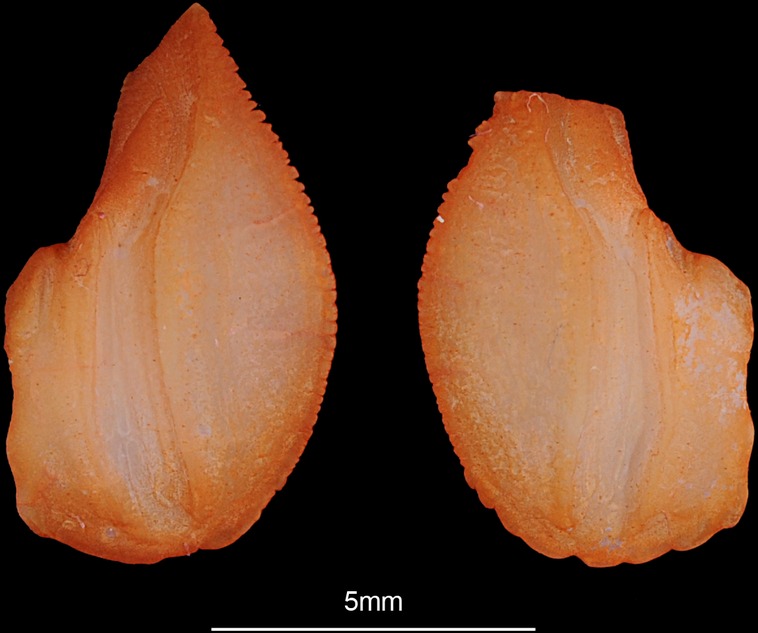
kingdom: Animalia
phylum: Chordata
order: Elopiformes
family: Elopidae
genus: Elops
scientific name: Elops lacerta
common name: Atlantic ladyfish
